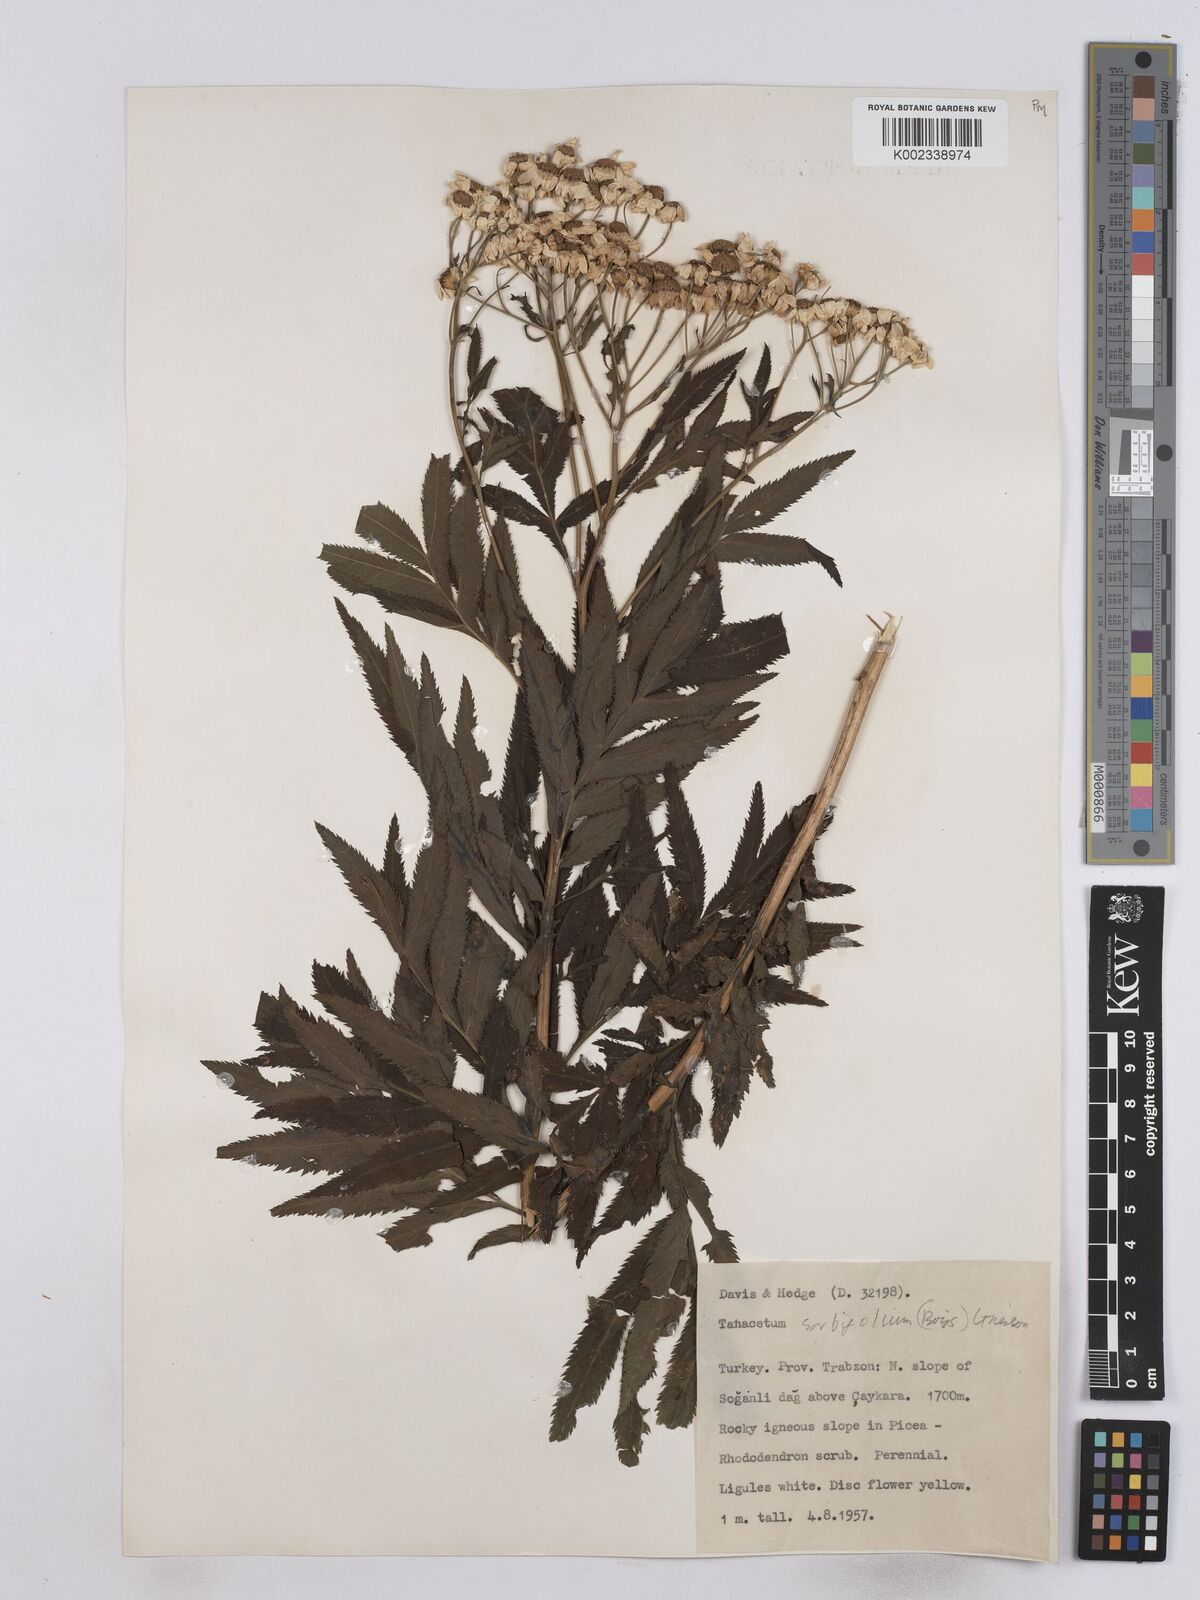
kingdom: Plantae
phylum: Tracheophyta
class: Magnoliopsida
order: Asterales
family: Asteraceae
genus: Tanacetum
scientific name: Tanacetum sorbifolium
